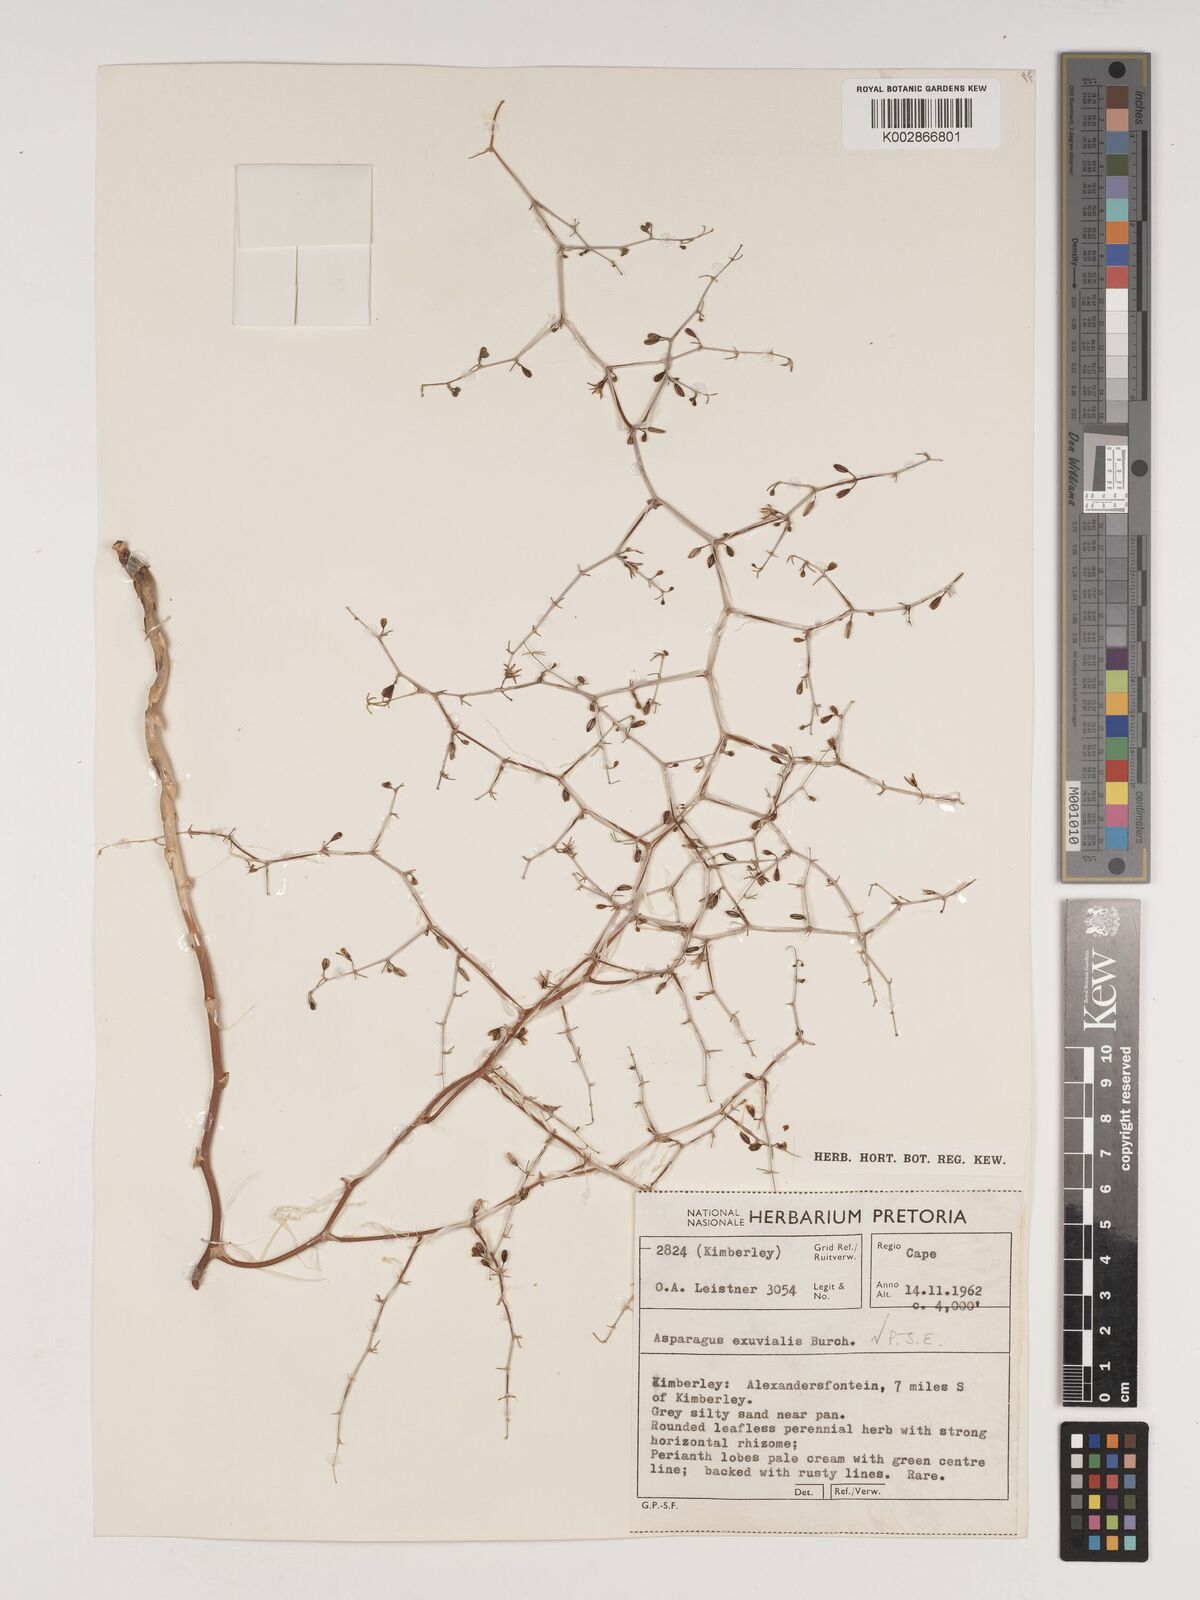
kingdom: Plantae
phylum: Tracheophyta
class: Liliopsida
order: Asparagales
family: Asparagaceae
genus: Asparagus
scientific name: Asparagus exuvialis
